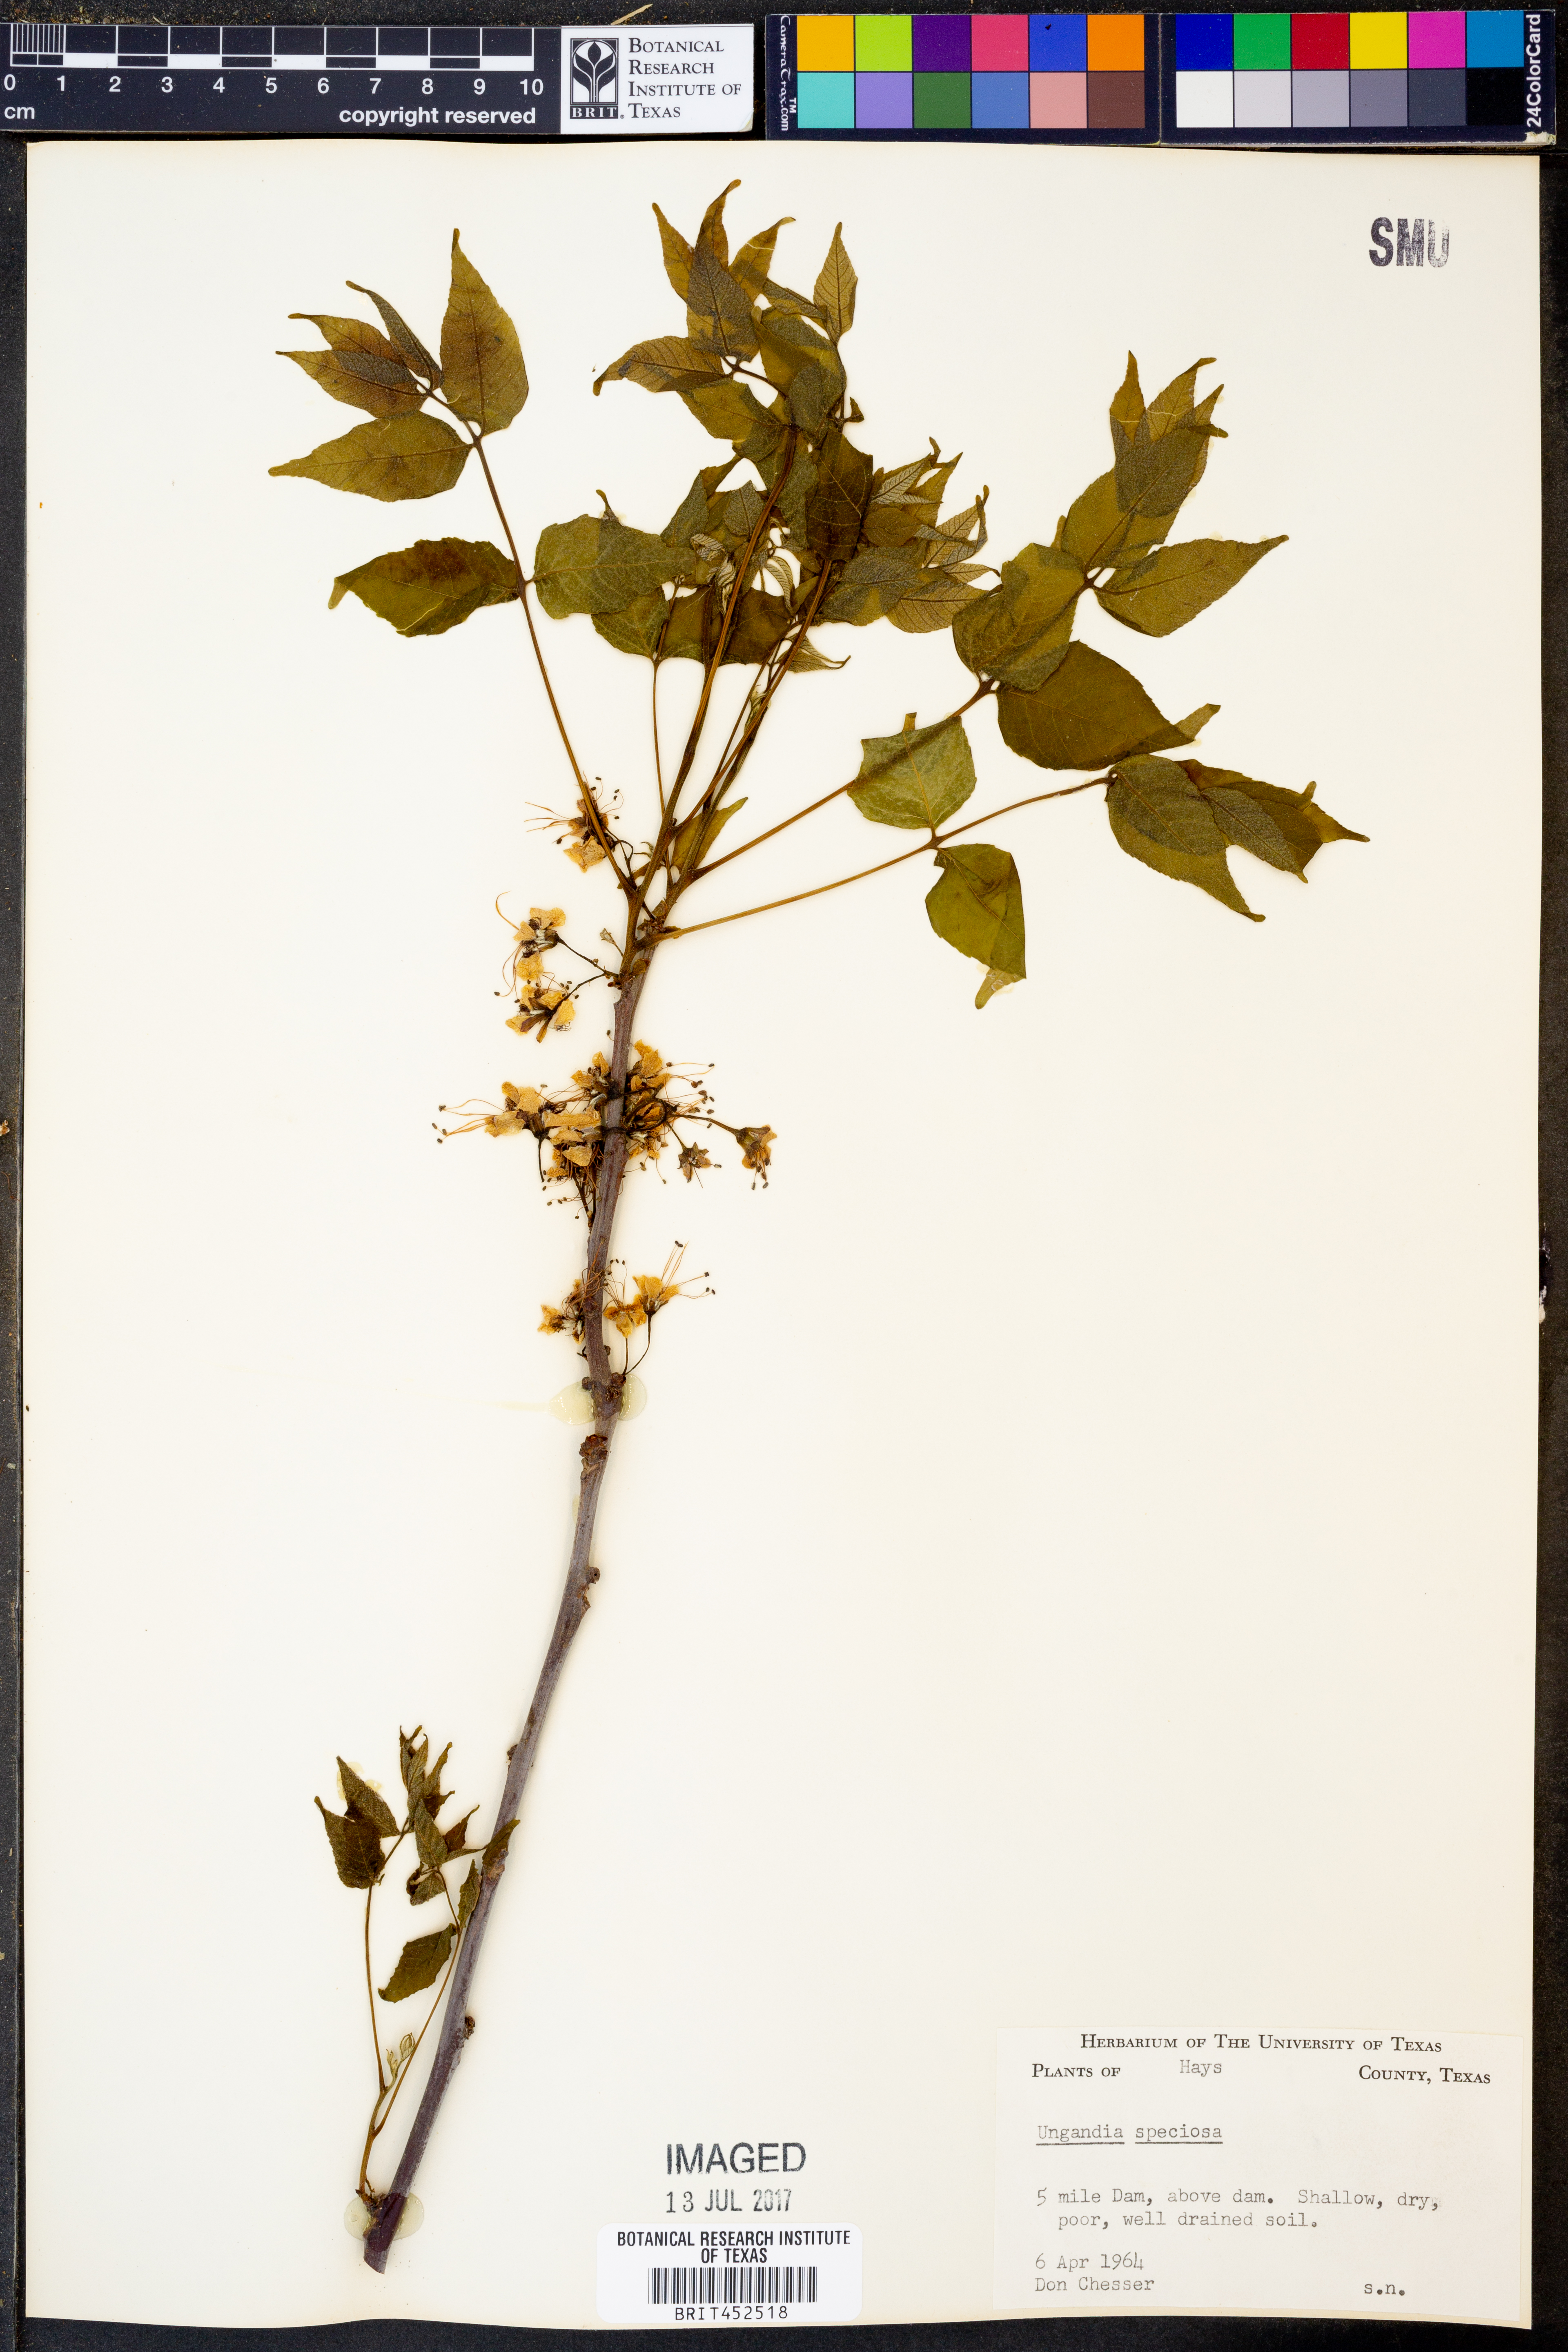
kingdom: Plantae
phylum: Tracheophyta
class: Magnoliopsida
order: Sapindales
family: Sapindaceae
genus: Ungnadia
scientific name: Ungnadia speciosa
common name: Texas-buckeye
